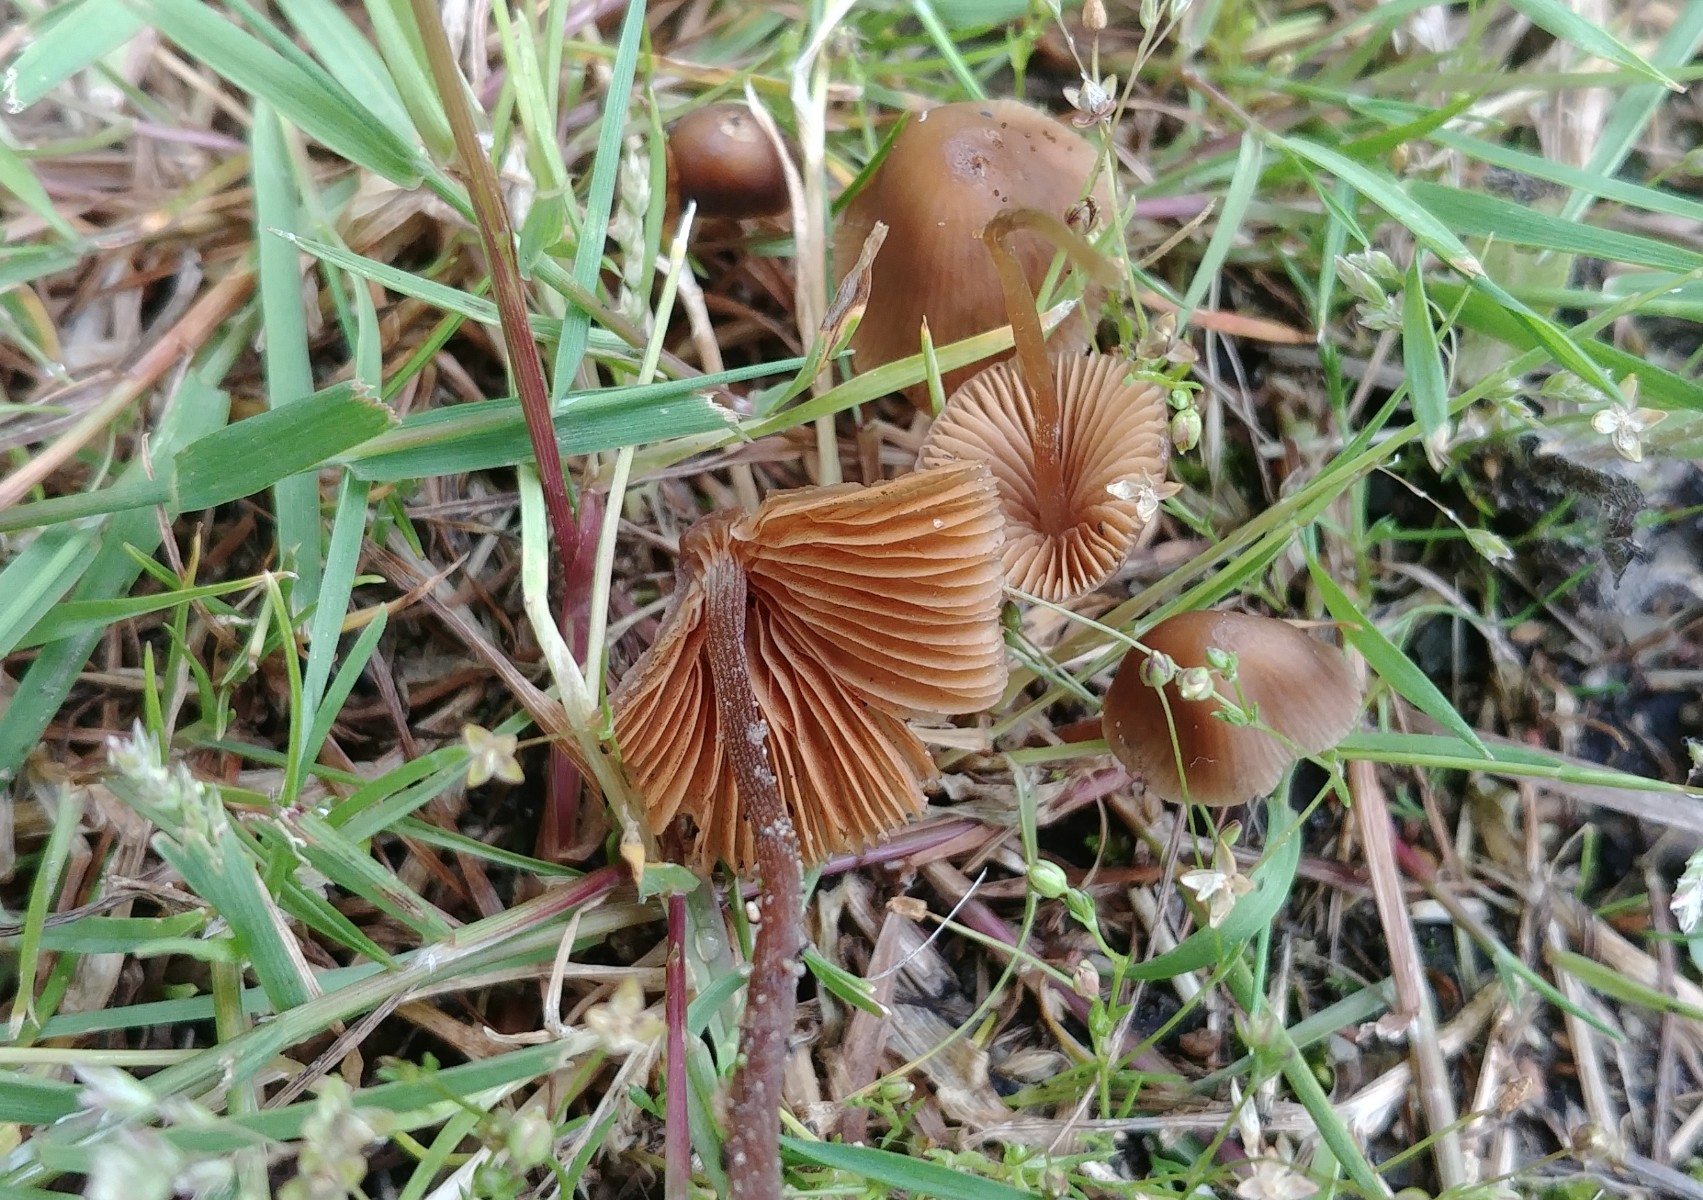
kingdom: Fungi
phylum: Basidiomycota
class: Agaricomycetes
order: Agaricales
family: Bolbitiaceae
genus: Conocybe
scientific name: Conocybe bisporigera
